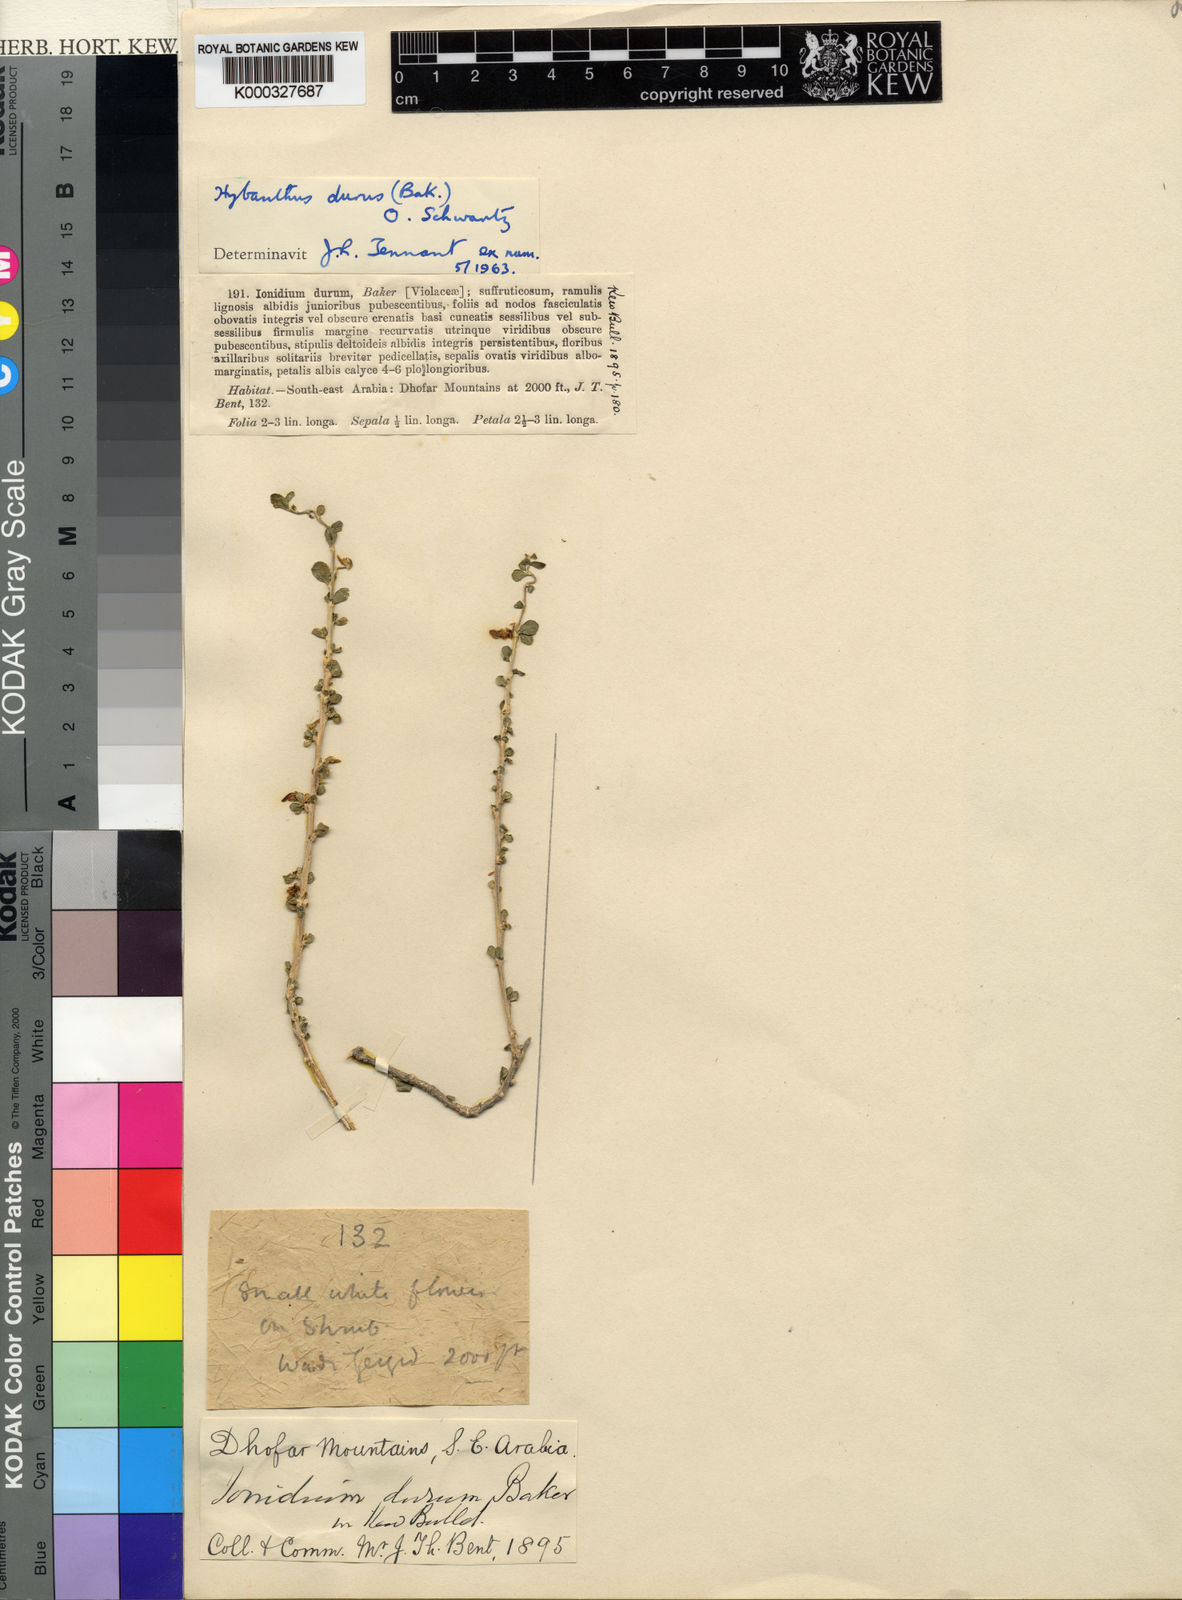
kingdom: Plantae
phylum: Tracheophyta
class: Magnoliopsida
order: Malpighiales
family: Violaceae
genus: Hybanthus
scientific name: Hybanthus durus
